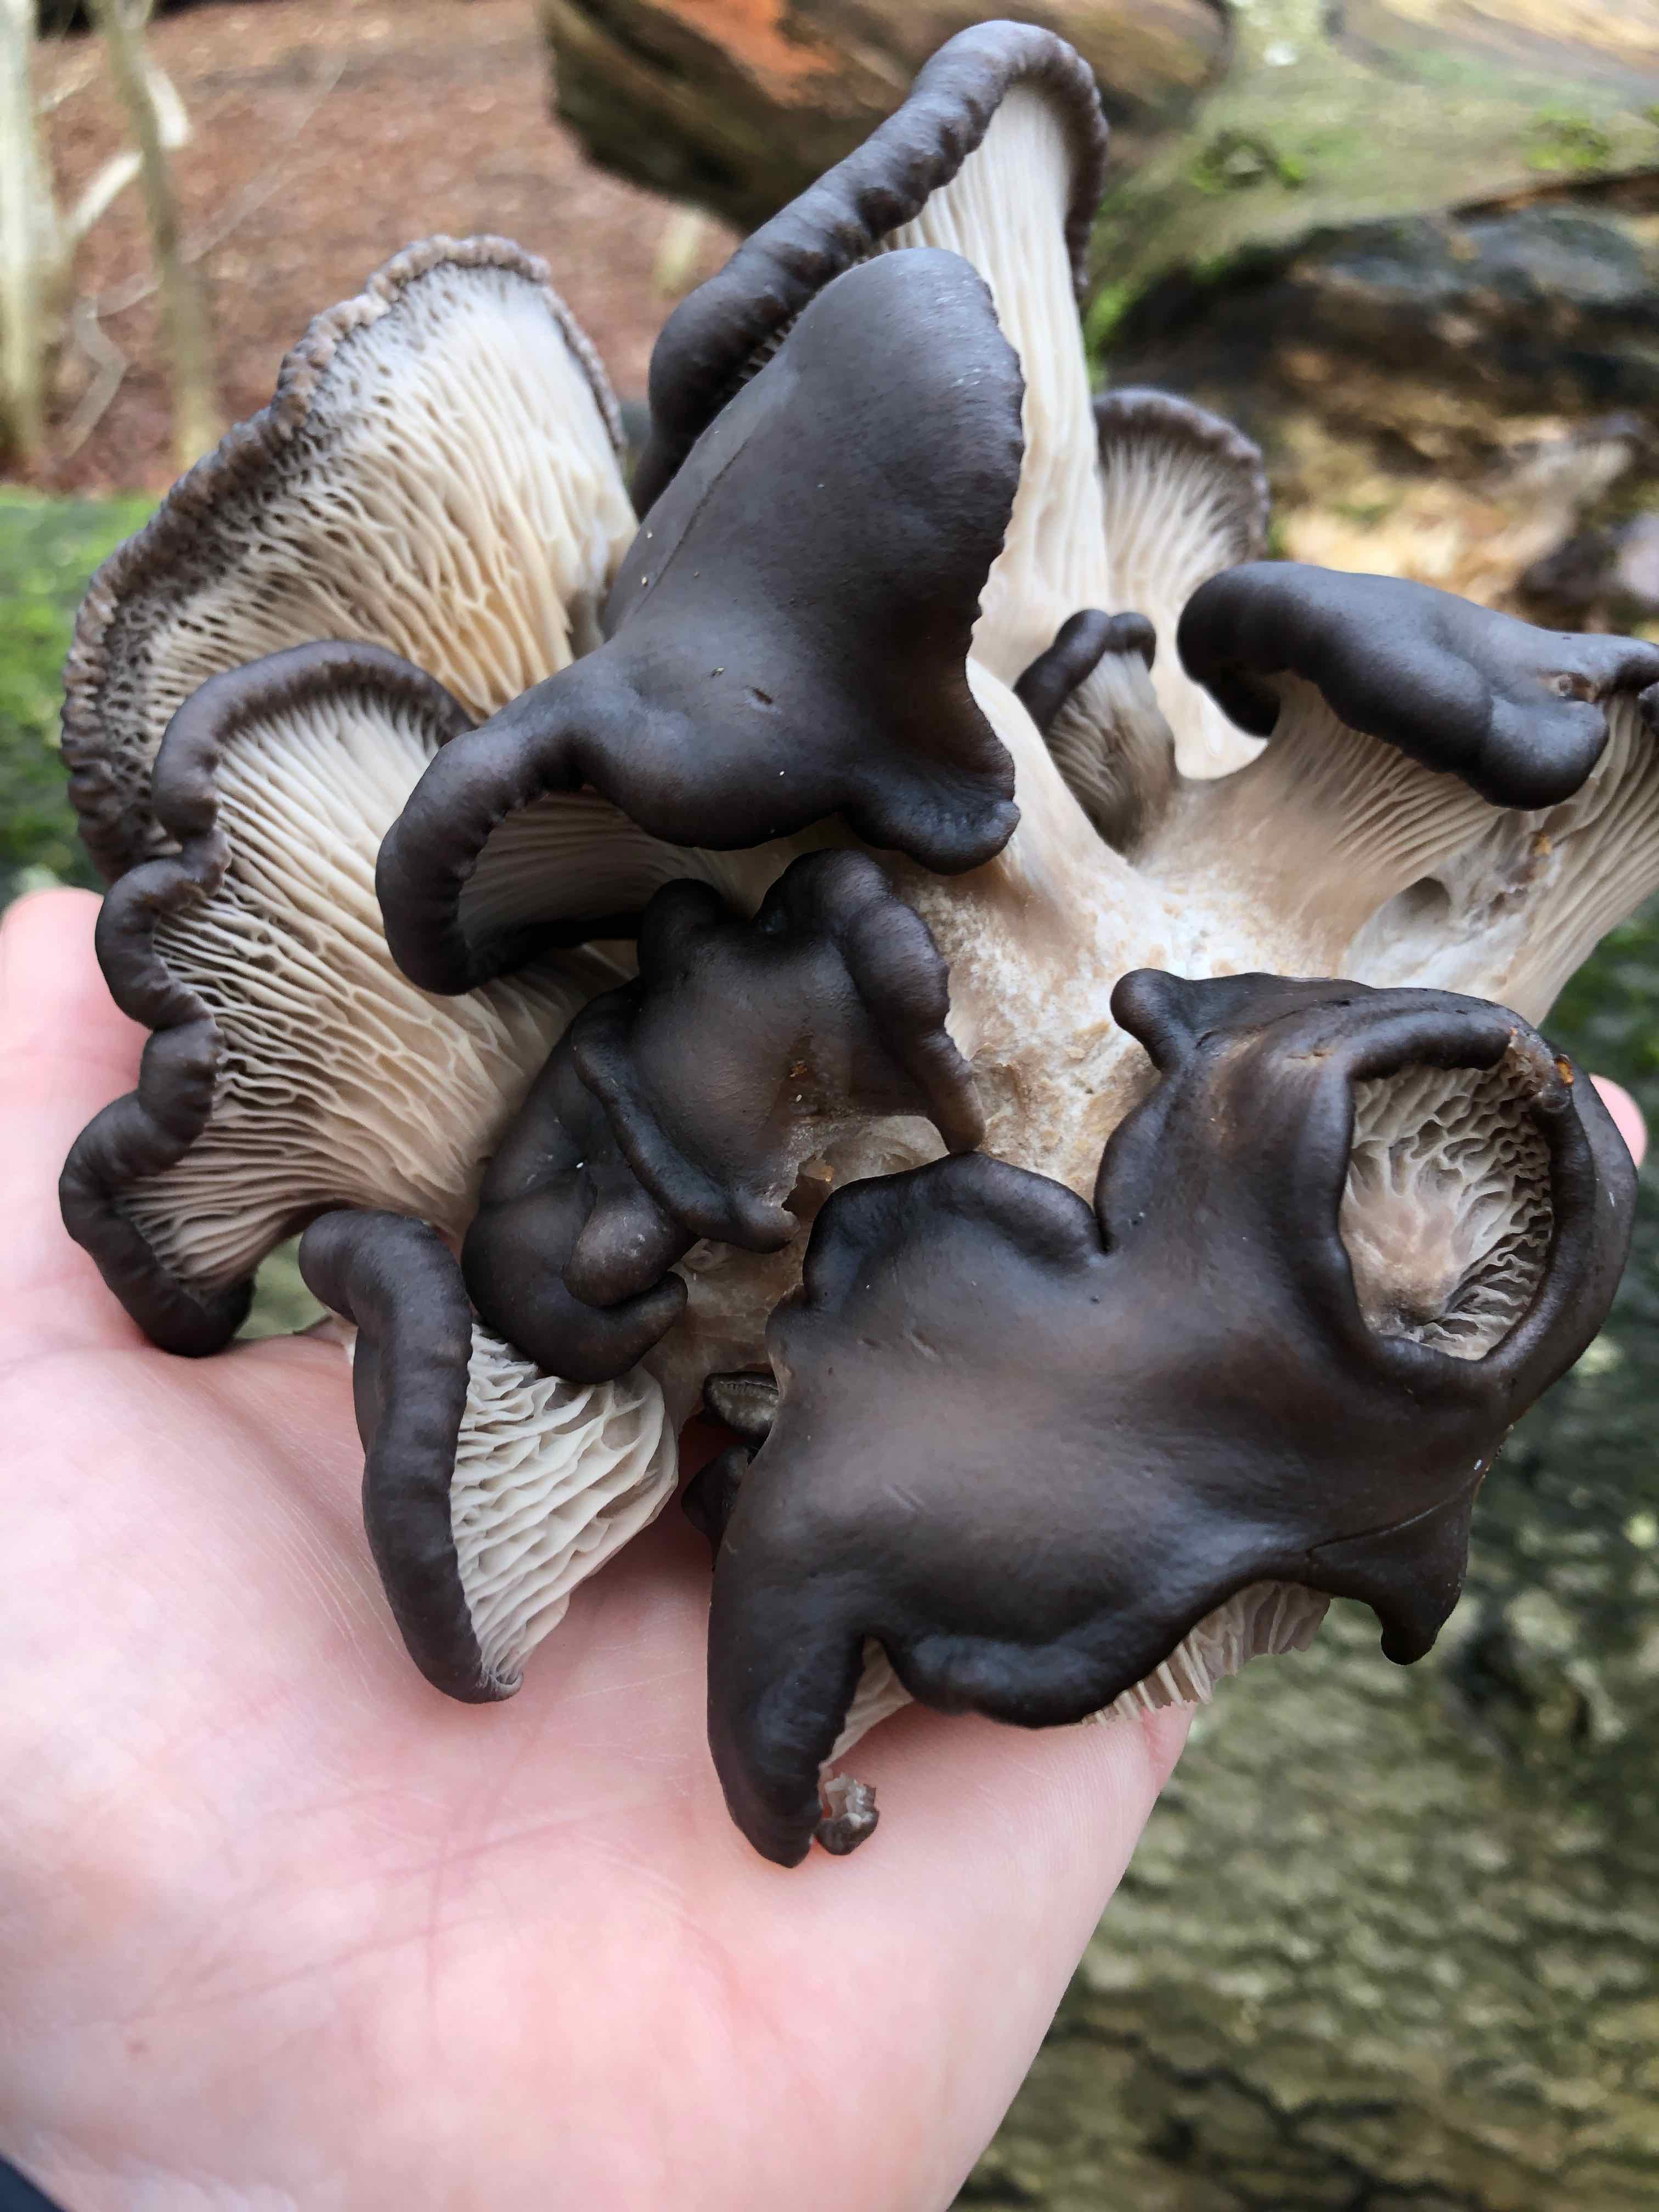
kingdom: Fungi
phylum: Basidiomycota
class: Agaricomycetes
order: Agaricales
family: Pleurotaceae
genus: Pleurotus
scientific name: Pleurotus ostreatus
